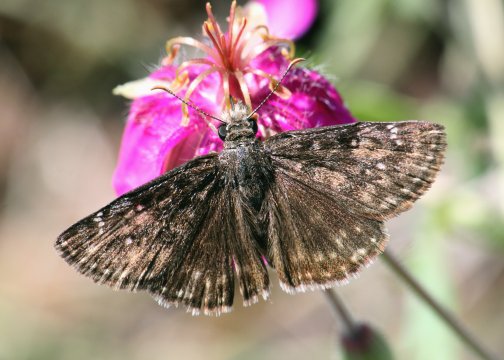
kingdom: Animalia
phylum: Arthropoda
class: Insecta
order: Lepidoptera
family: Hesperiidae
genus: Erynnis
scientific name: Erynnis afranius
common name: Afranius Duskywing
